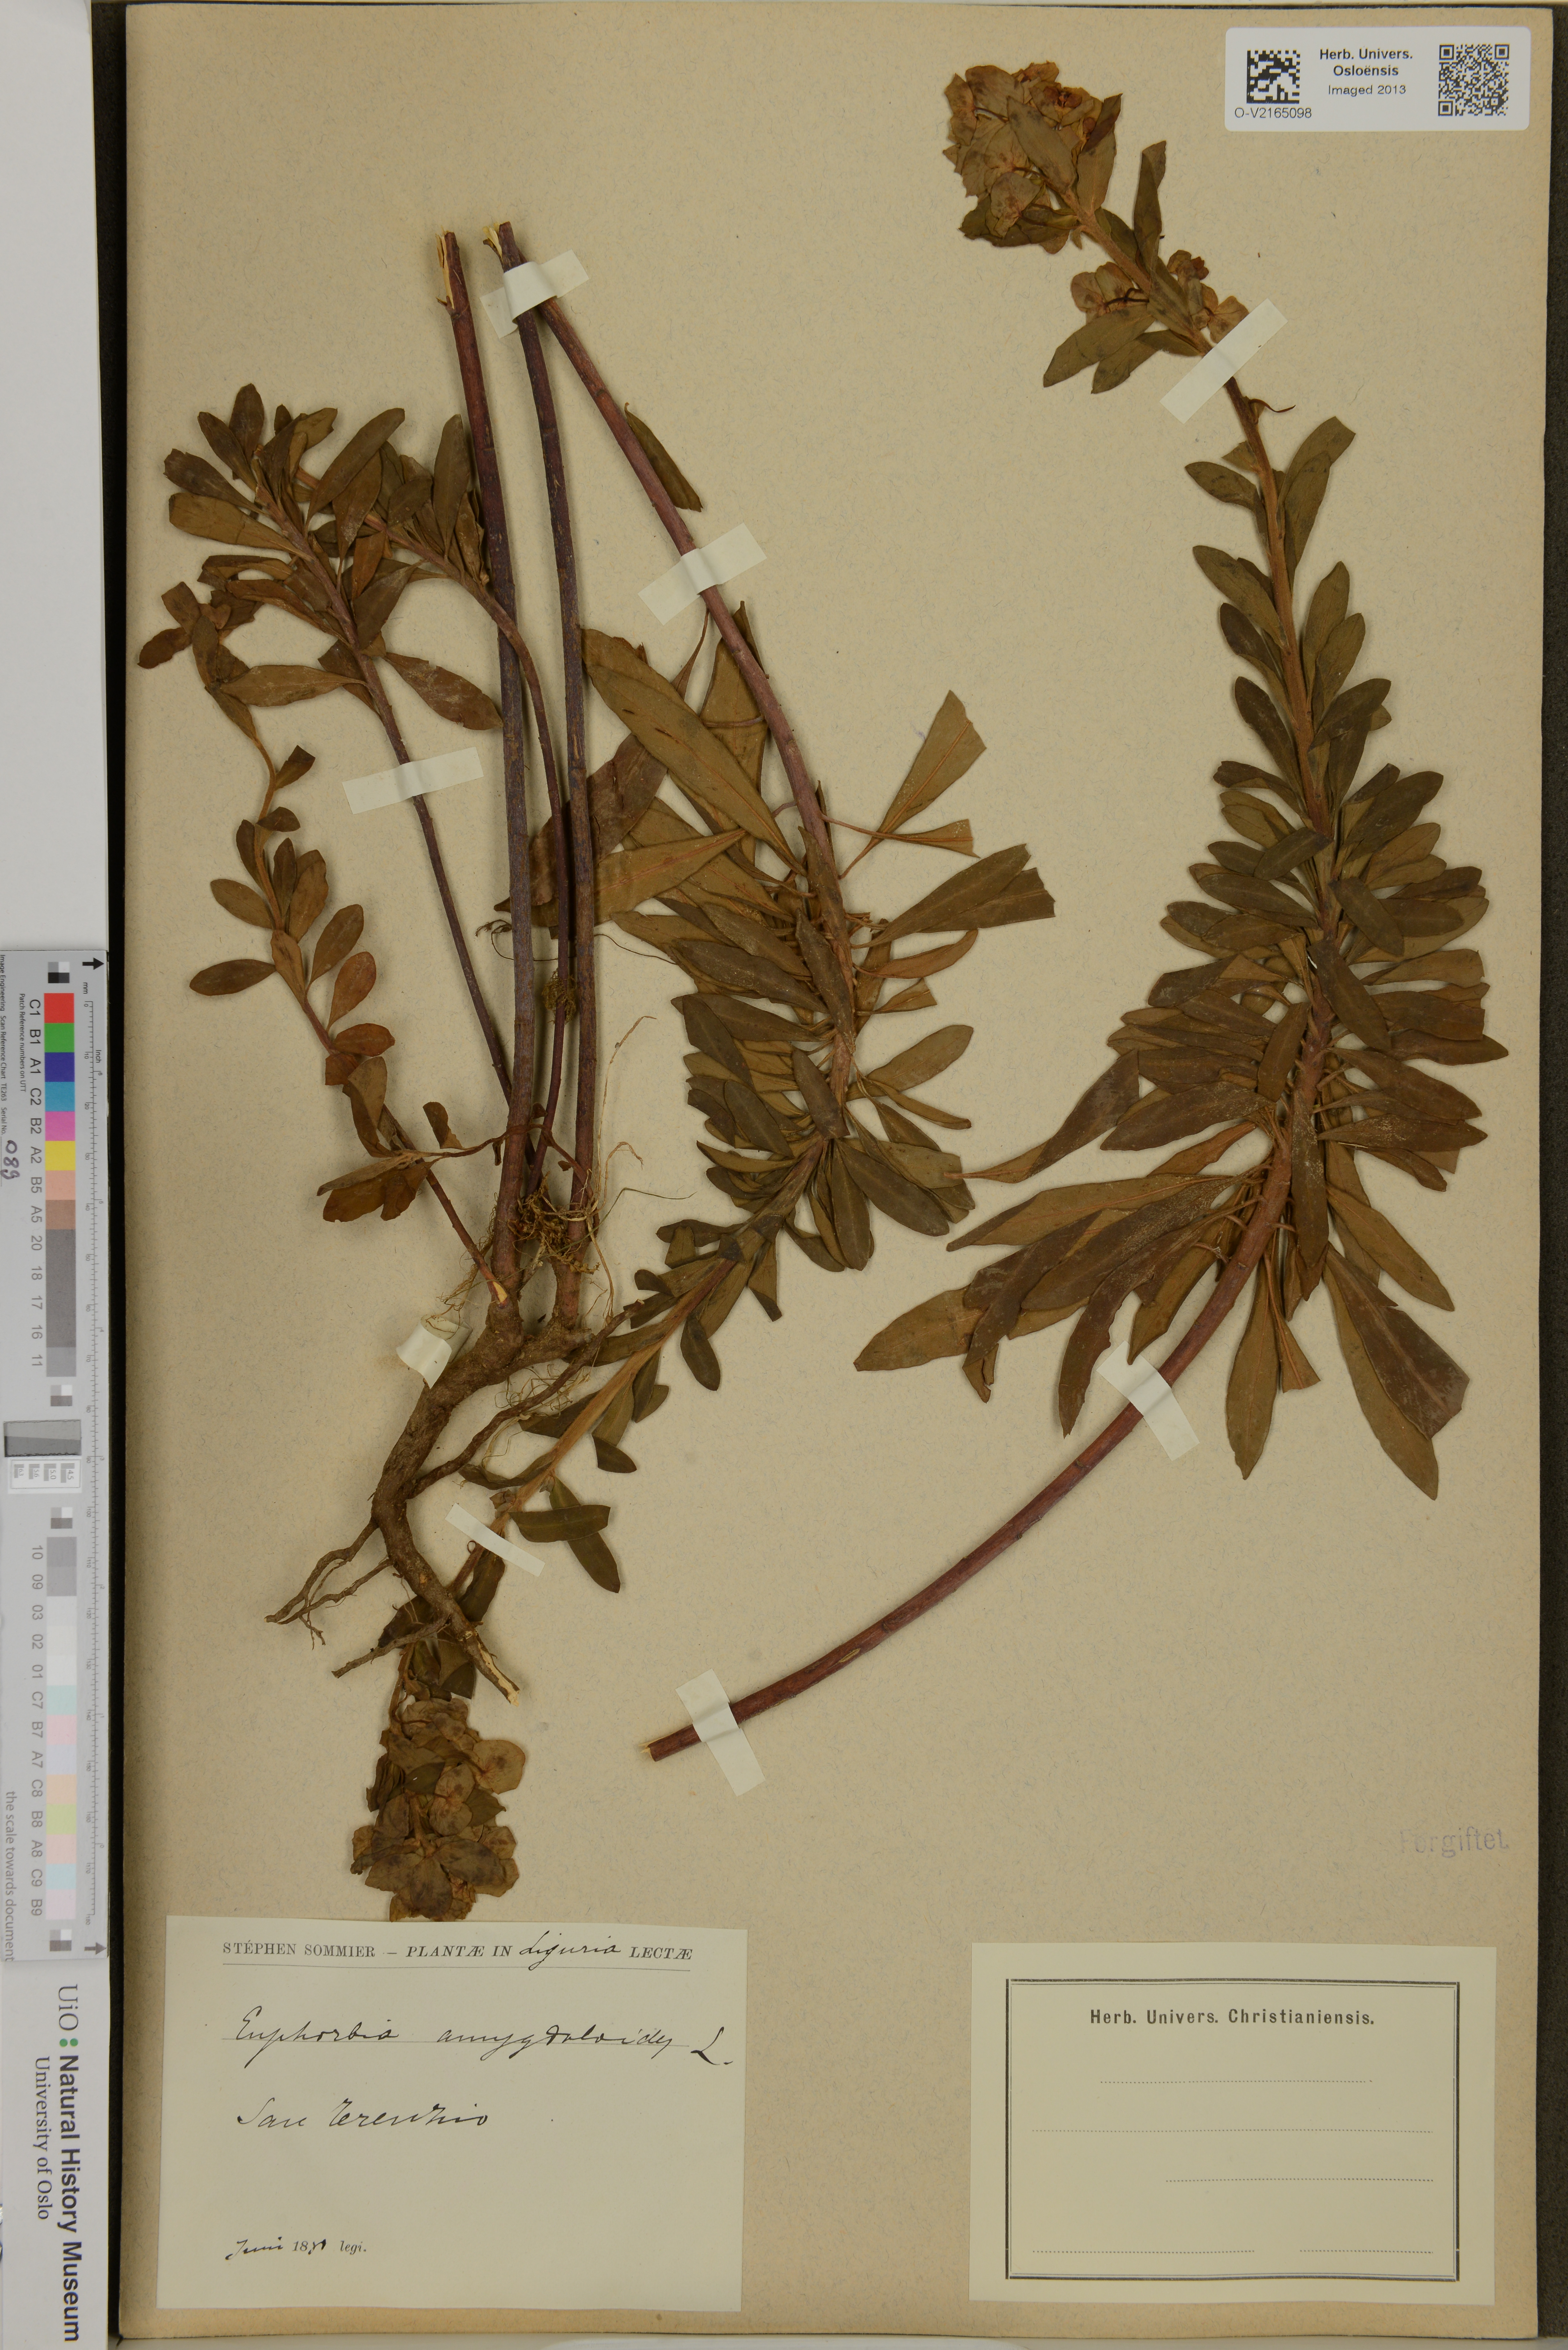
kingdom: Plantae
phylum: Tracheophyta
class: Magnoliopsida
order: Malpighiales
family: Euphorbiaceae
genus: Euphorbia
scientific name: Euphorbia amygdaloides
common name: Wood spurge
